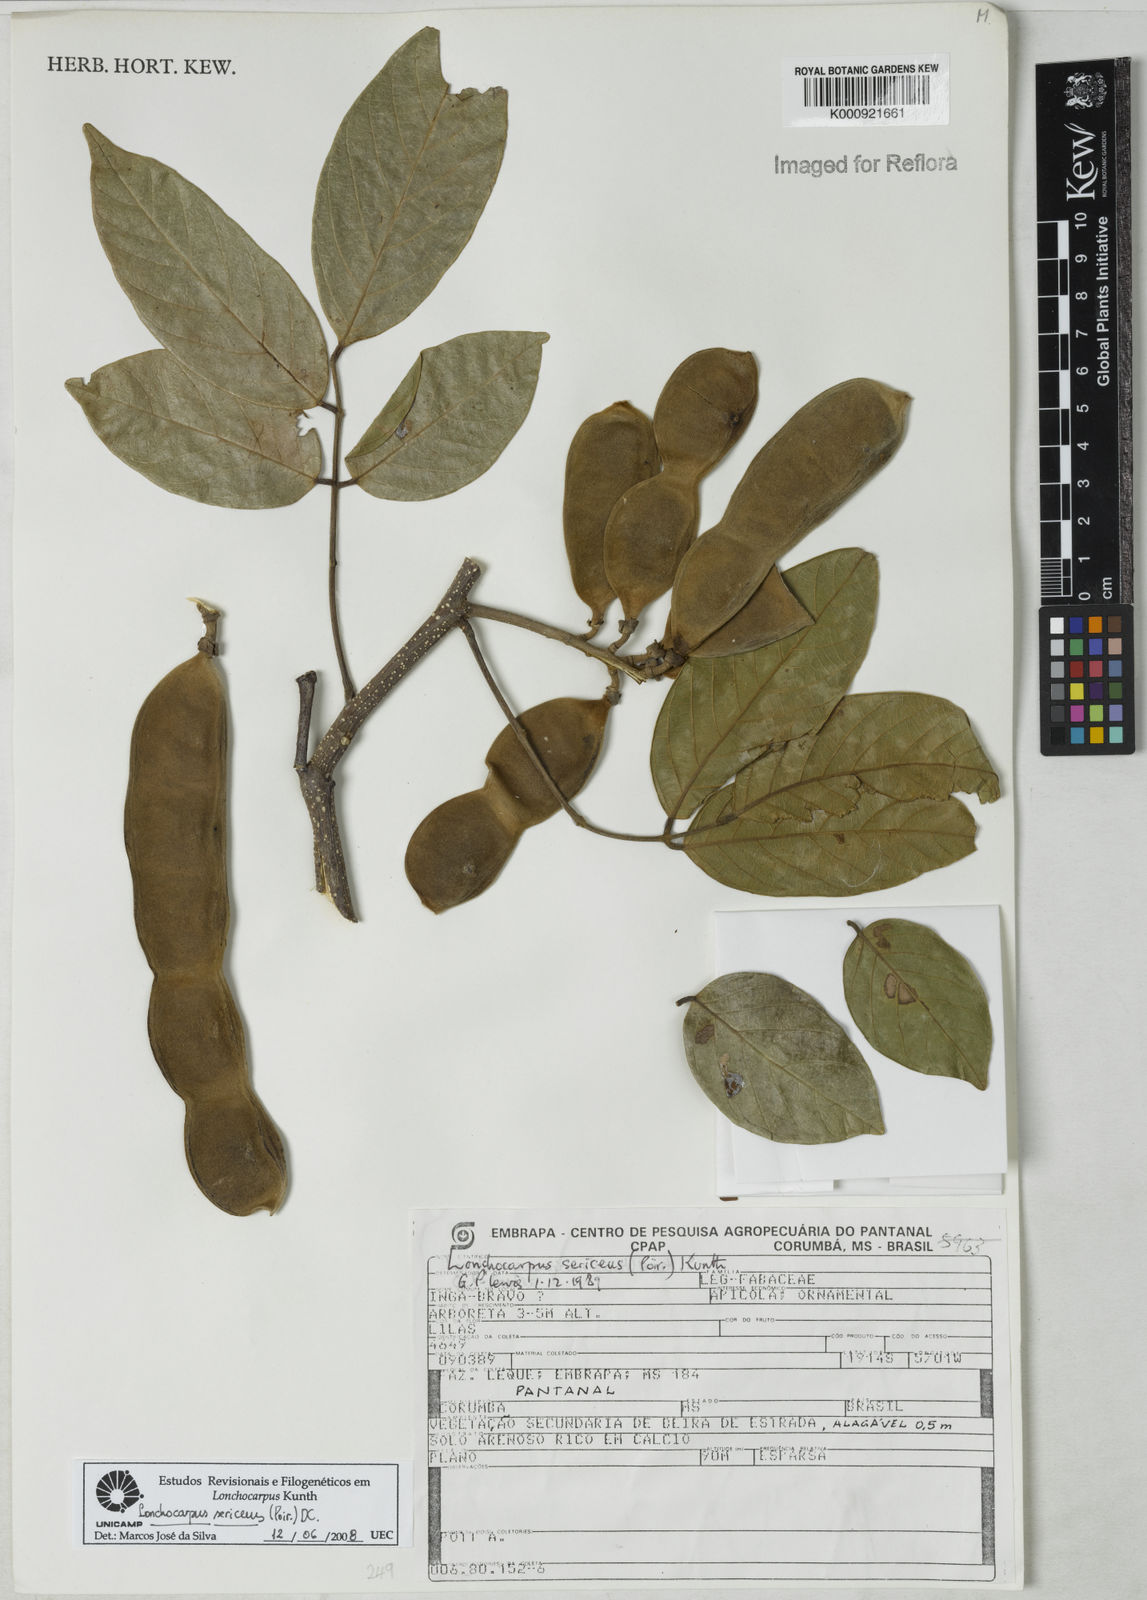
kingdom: Plantae
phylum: Tracheophyta
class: Magnoliopsida
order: Fabales
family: Fabaceae
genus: Lonchocarpus
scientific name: Lonchocarpus
